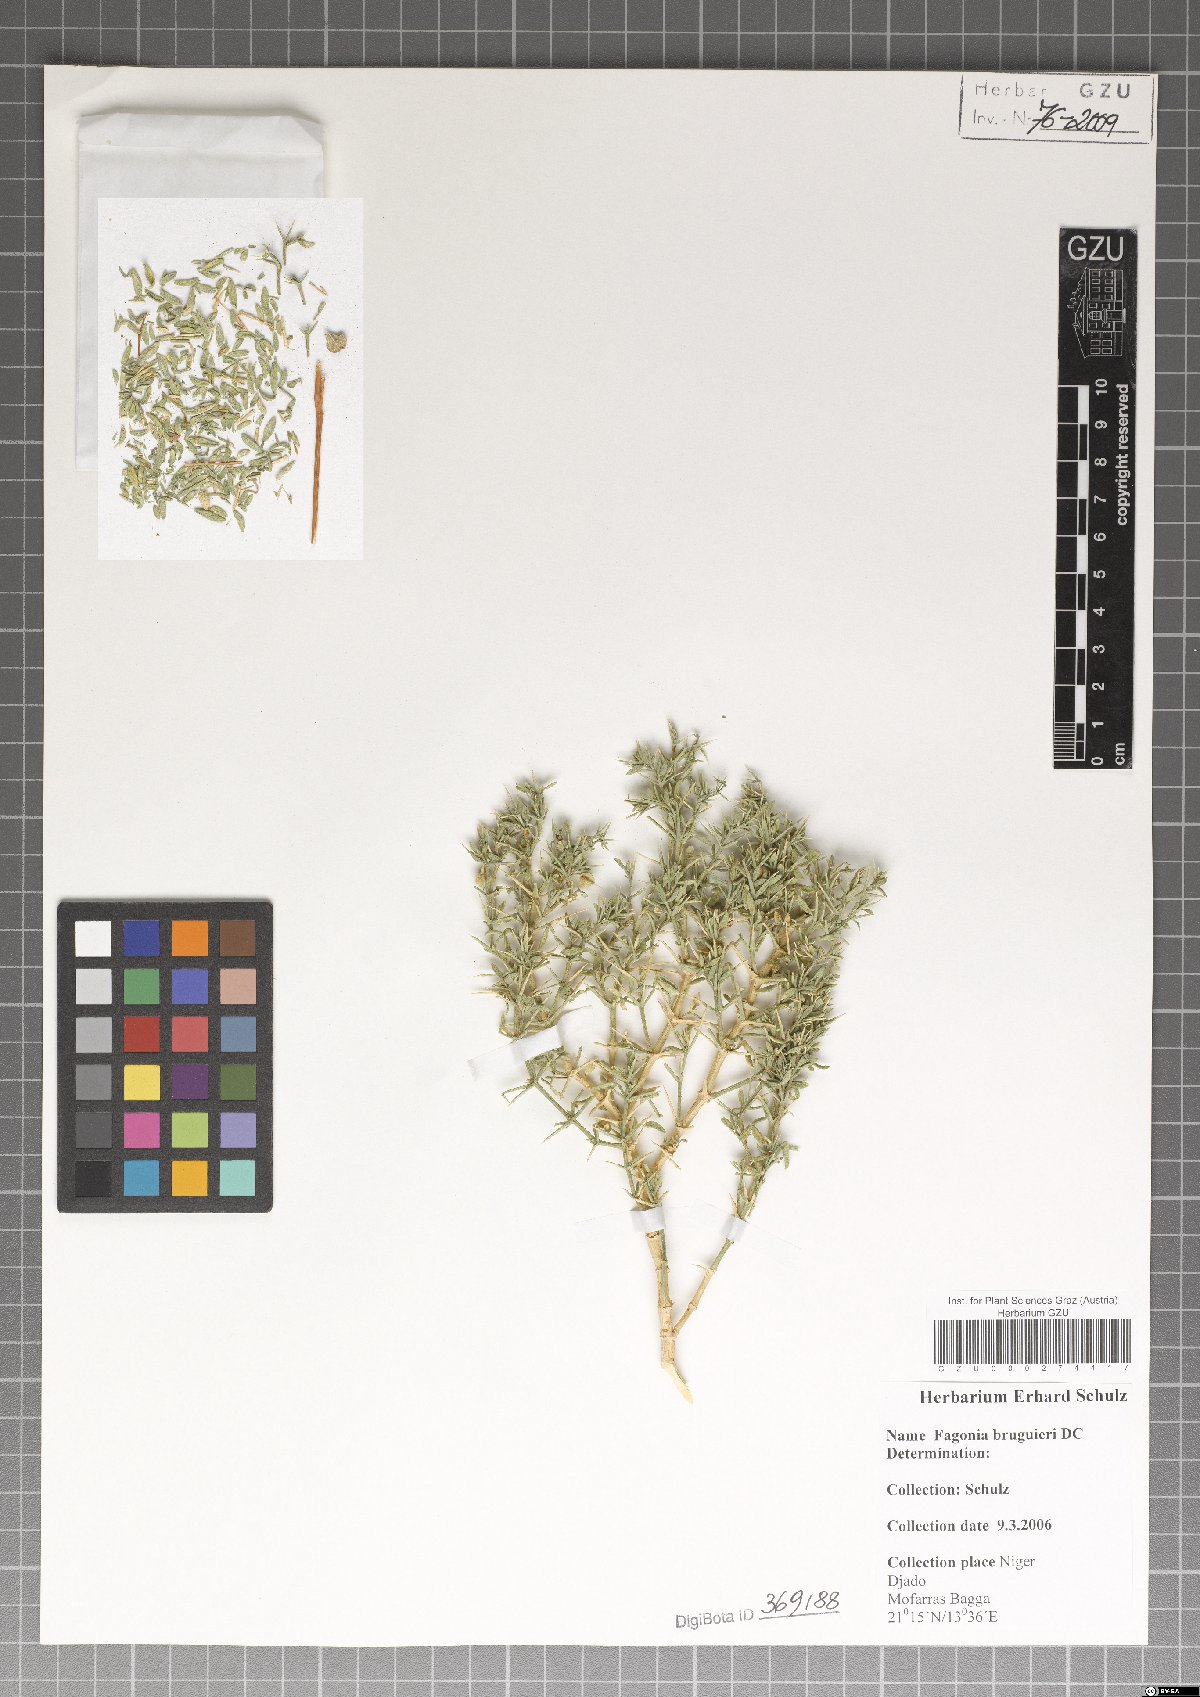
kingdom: Plantae
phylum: Tracheophyta
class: Magnoliopsida
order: Zygophyllales
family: Zygophyllaceae
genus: Fagonia
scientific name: Fagonia bruguieri
